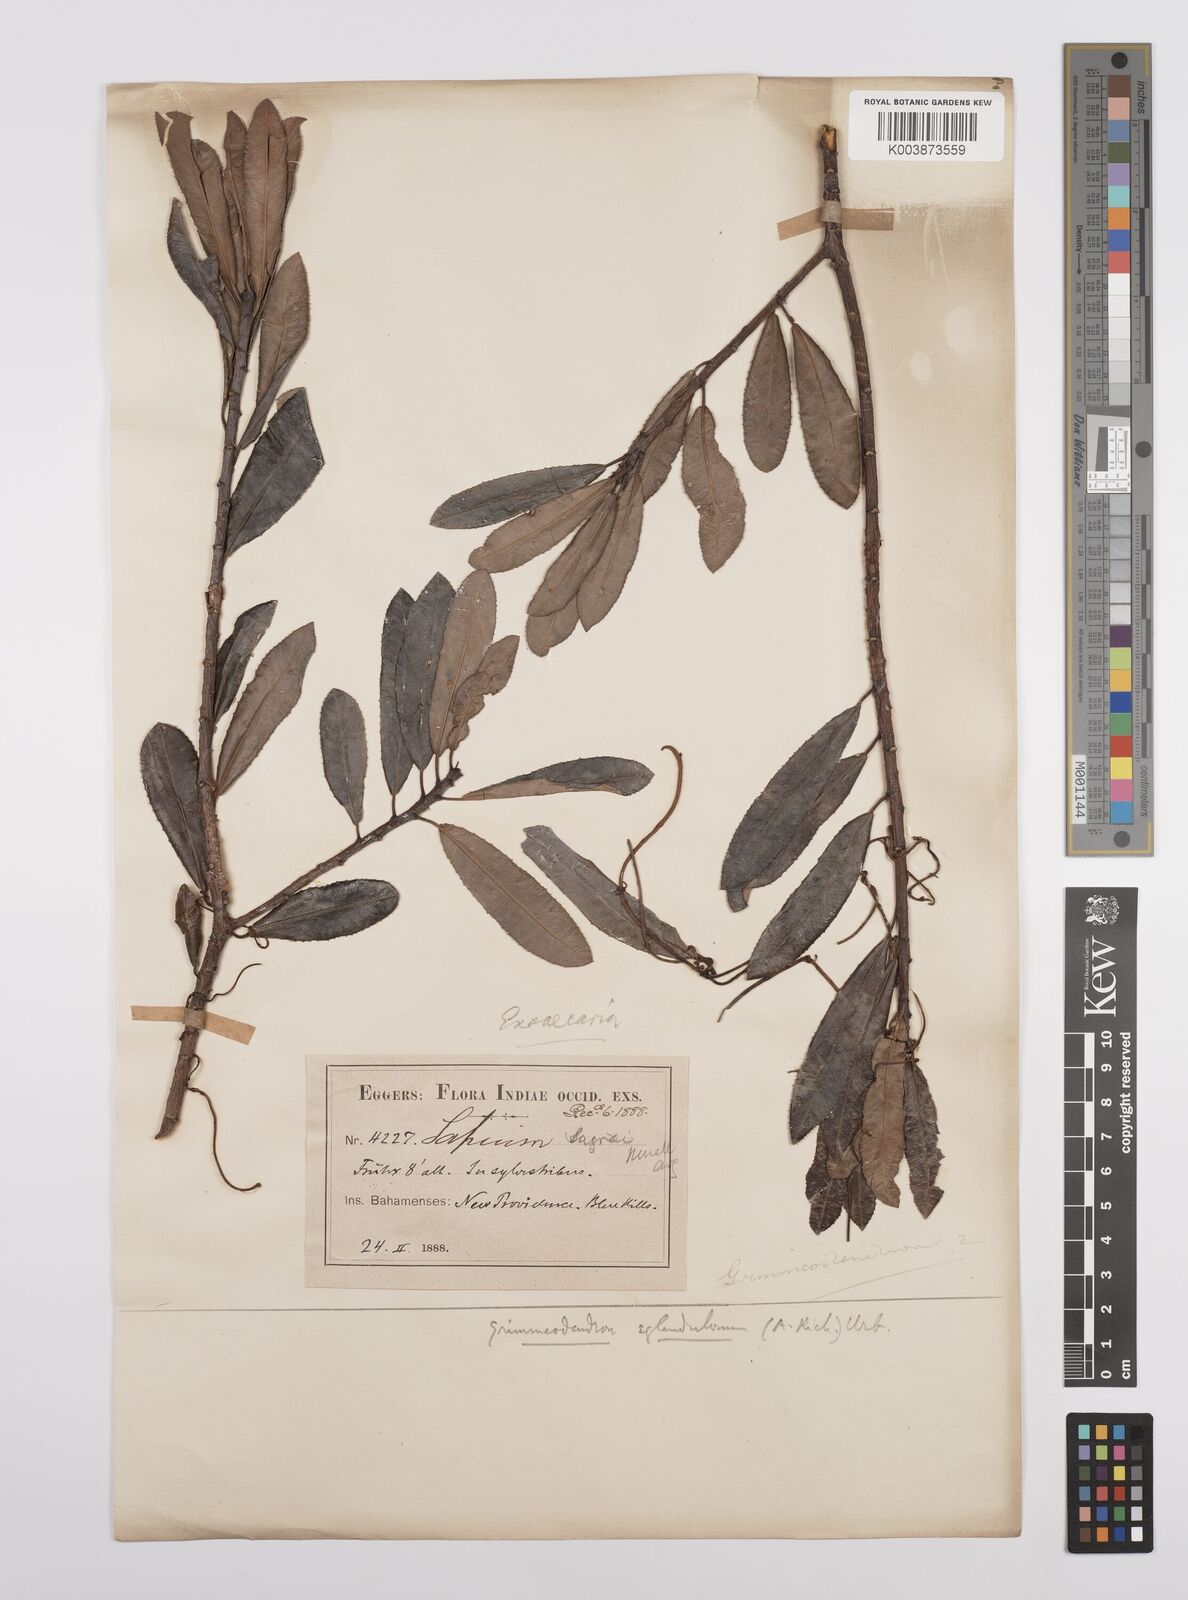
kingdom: Plantae
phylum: Tracheophyta
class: Magnoliopsida
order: Malpighiales
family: Euphorbiaceae
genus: Grimmeodendron
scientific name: Grimmeodendron eglandulosum
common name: Grimm’s tree
